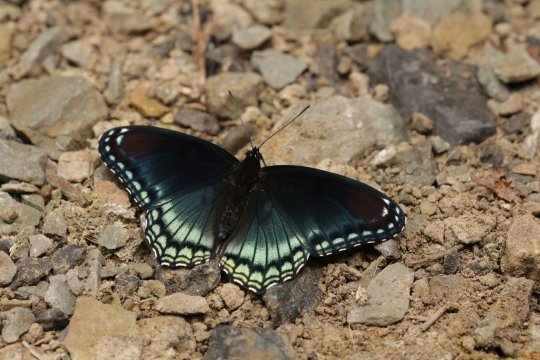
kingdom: Animalia
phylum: Arthropoda
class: Insecta
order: Lepidoptera
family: Nymphalidae
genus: Limenitis
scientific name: Limenitis arthemis
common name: Red-spotted Admiral
